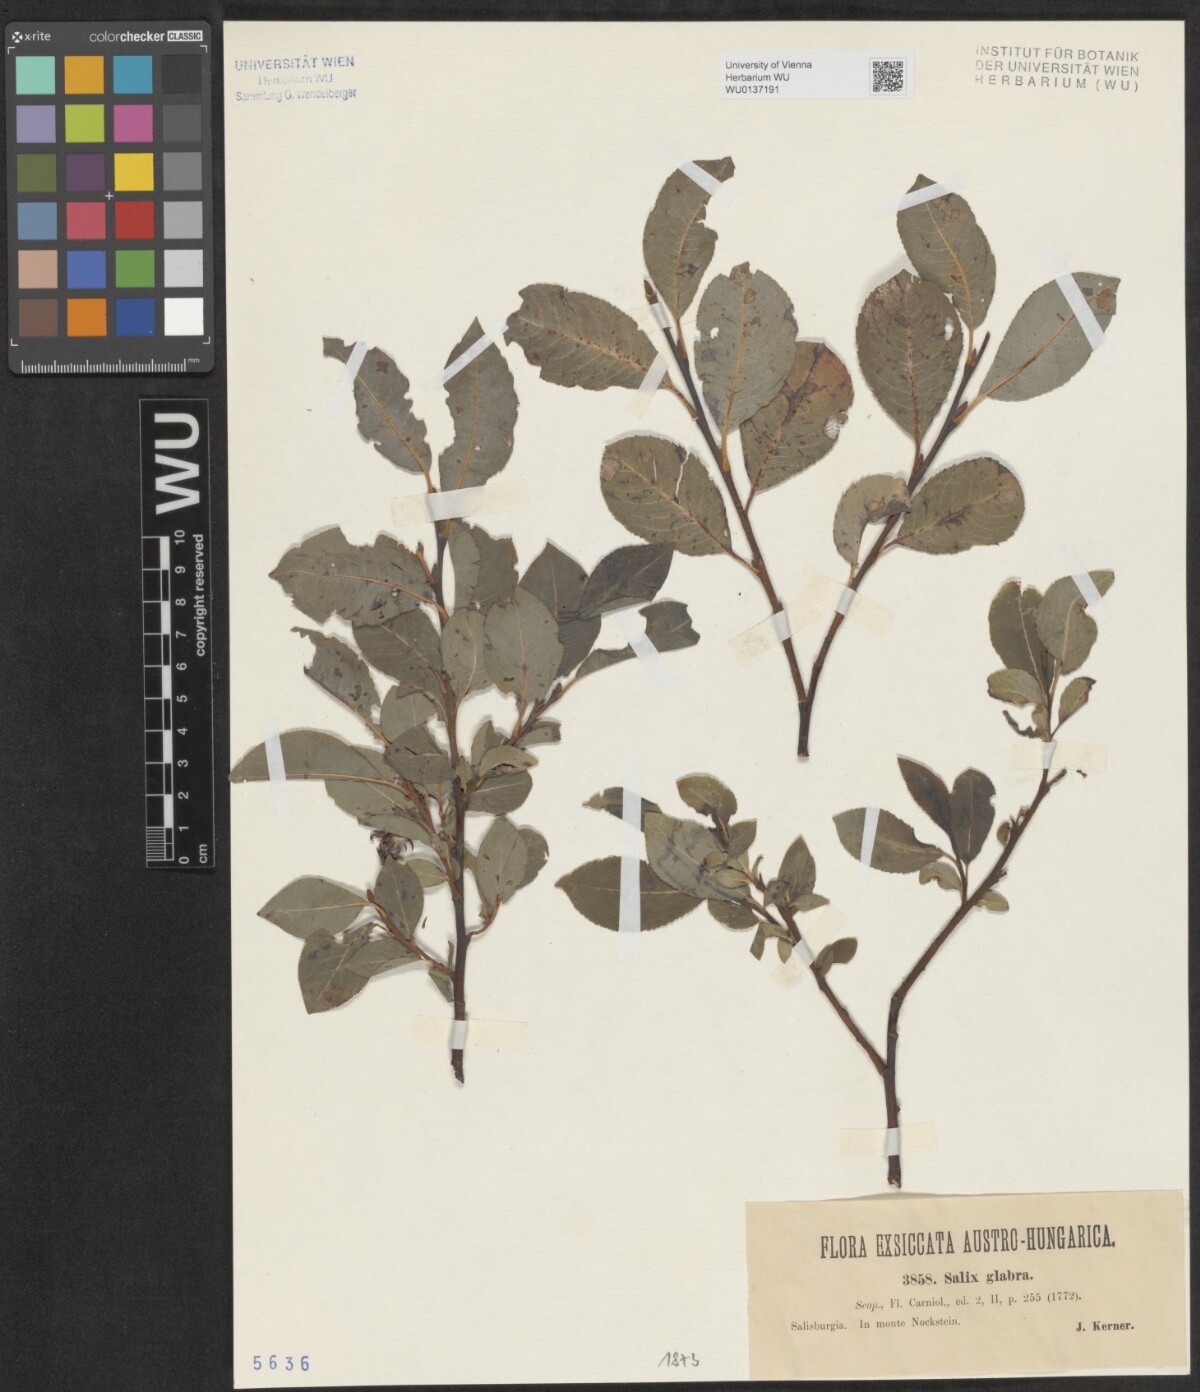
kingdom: Plantae
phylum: Tracheophyta
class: Magnoliopsida
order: Malpighiales
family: Salicaceae
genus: Salix
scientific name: Salix glabra
